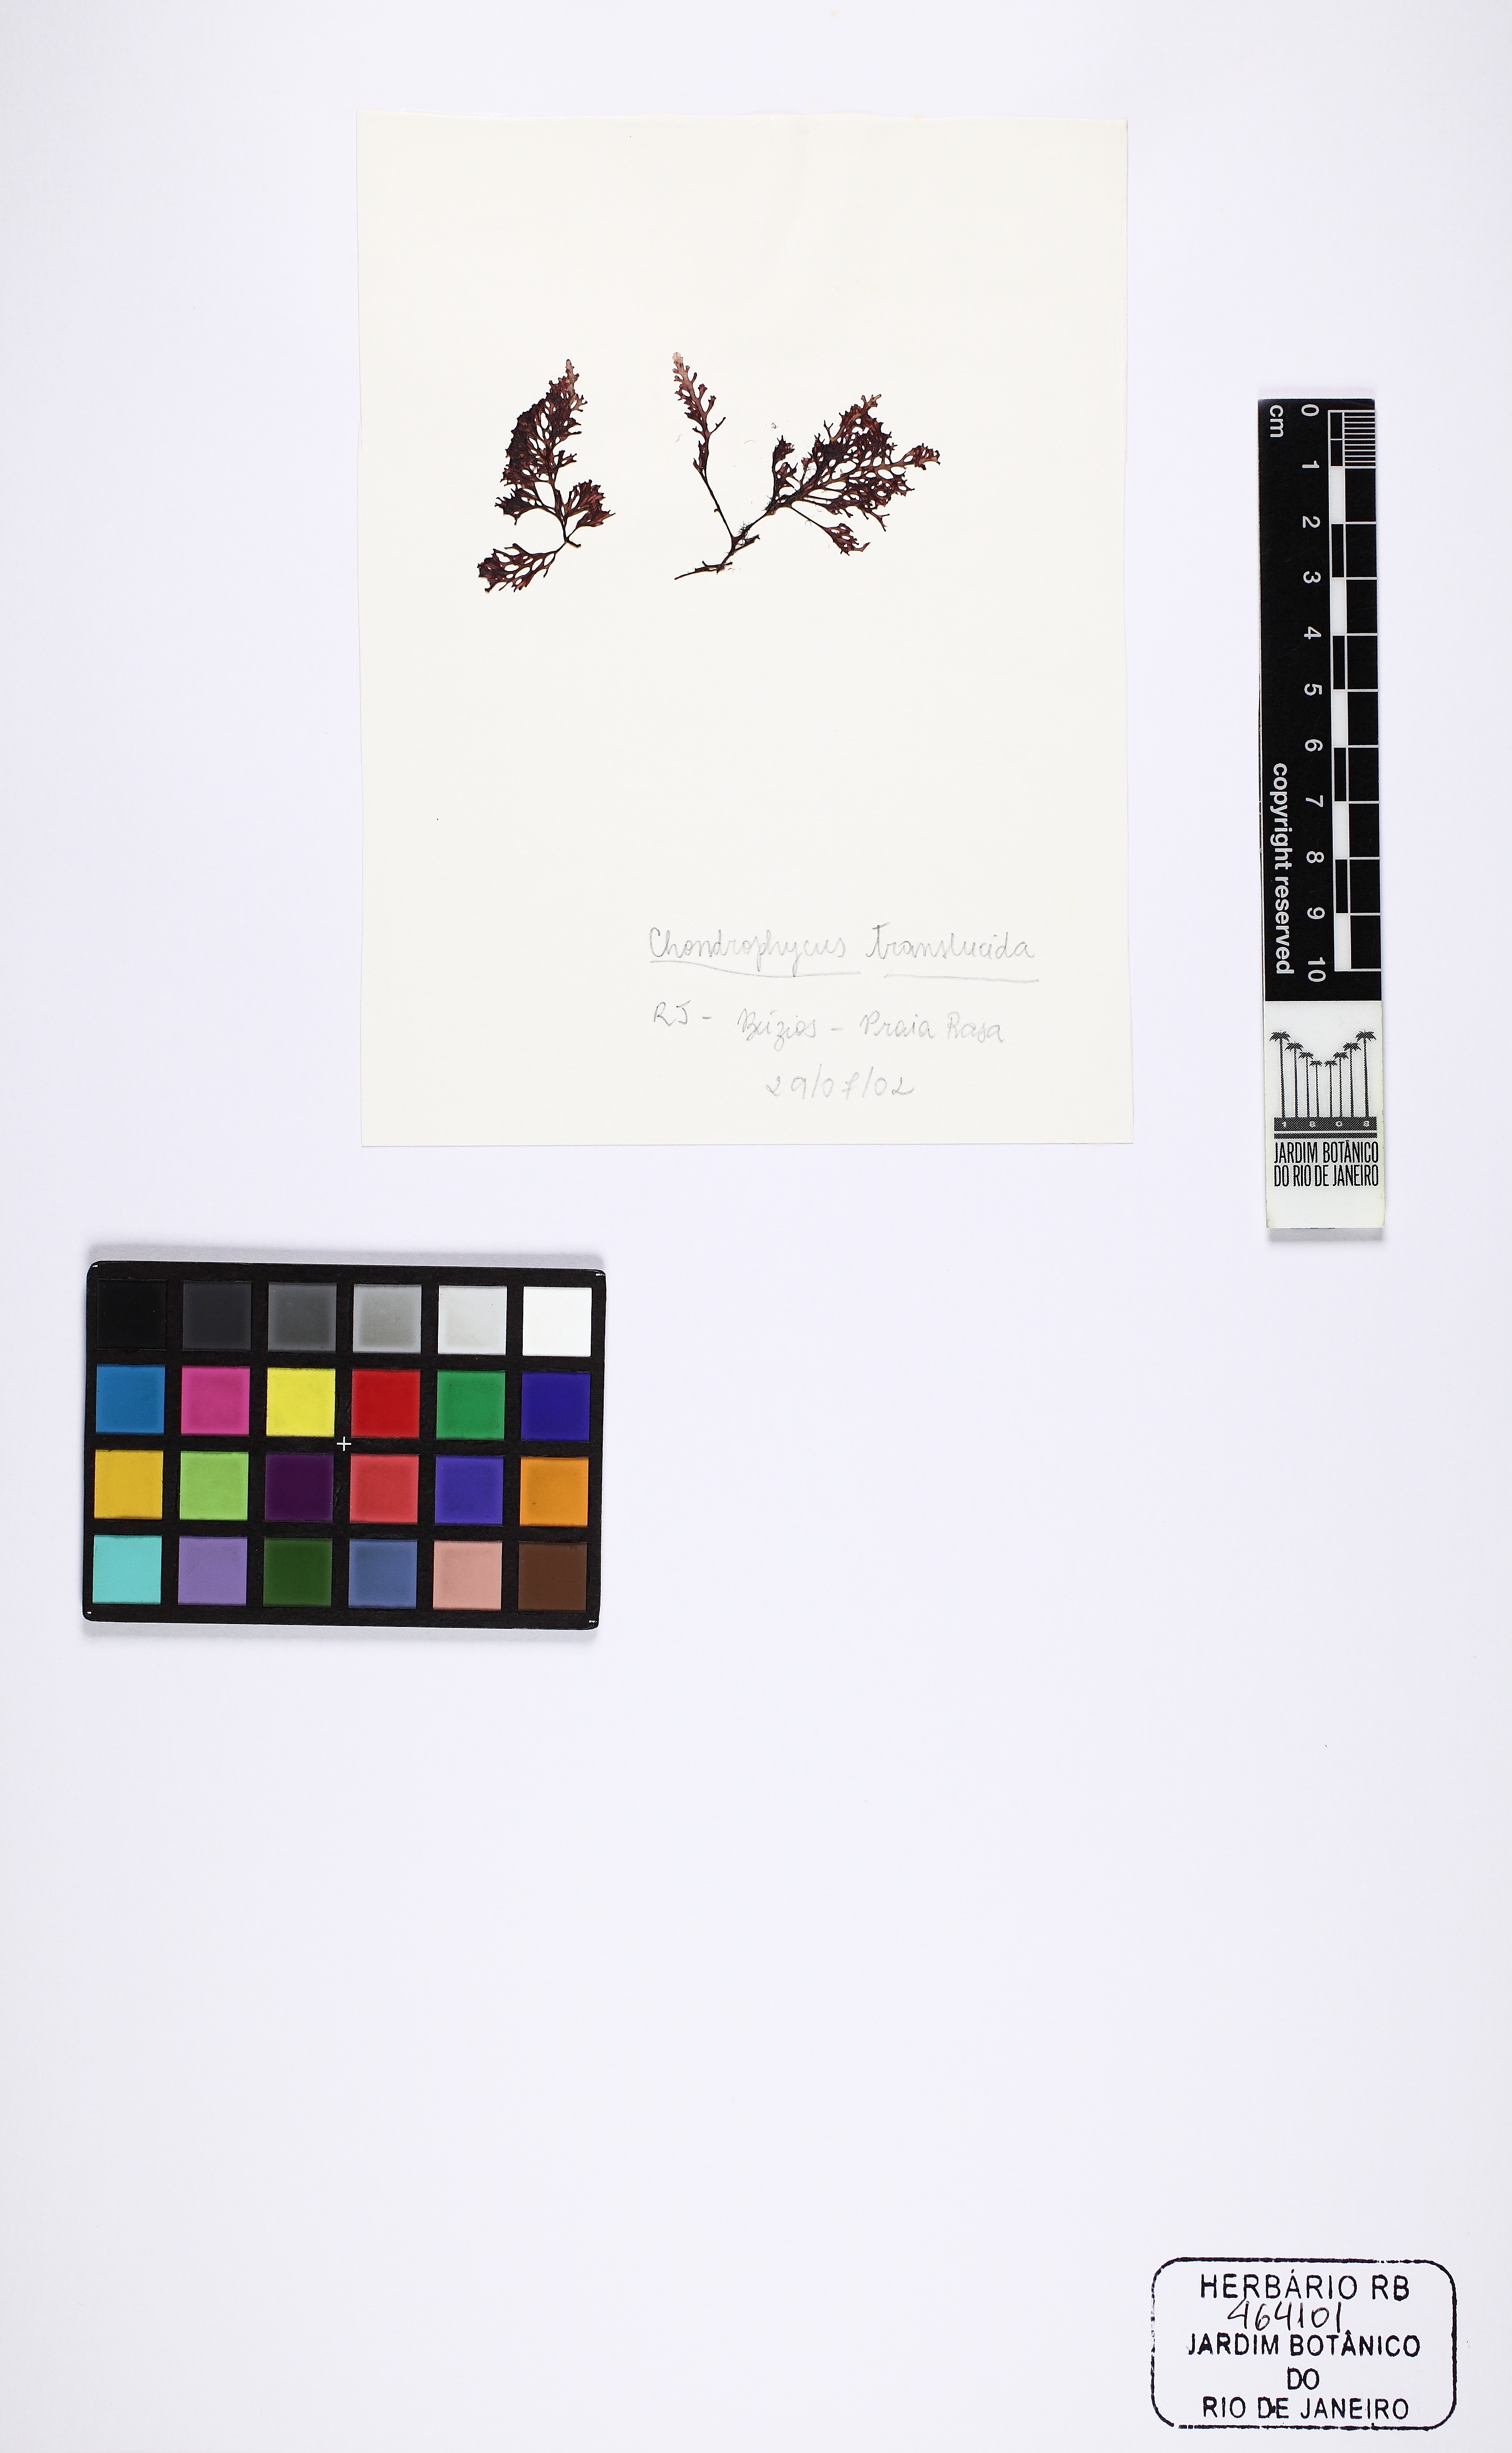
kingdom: Plantae
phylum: Rhodophyta
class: Florideophyceae
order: Ceramiales
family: Rhodomelaceae
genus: Laurencia
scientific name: Laurencia translucida
